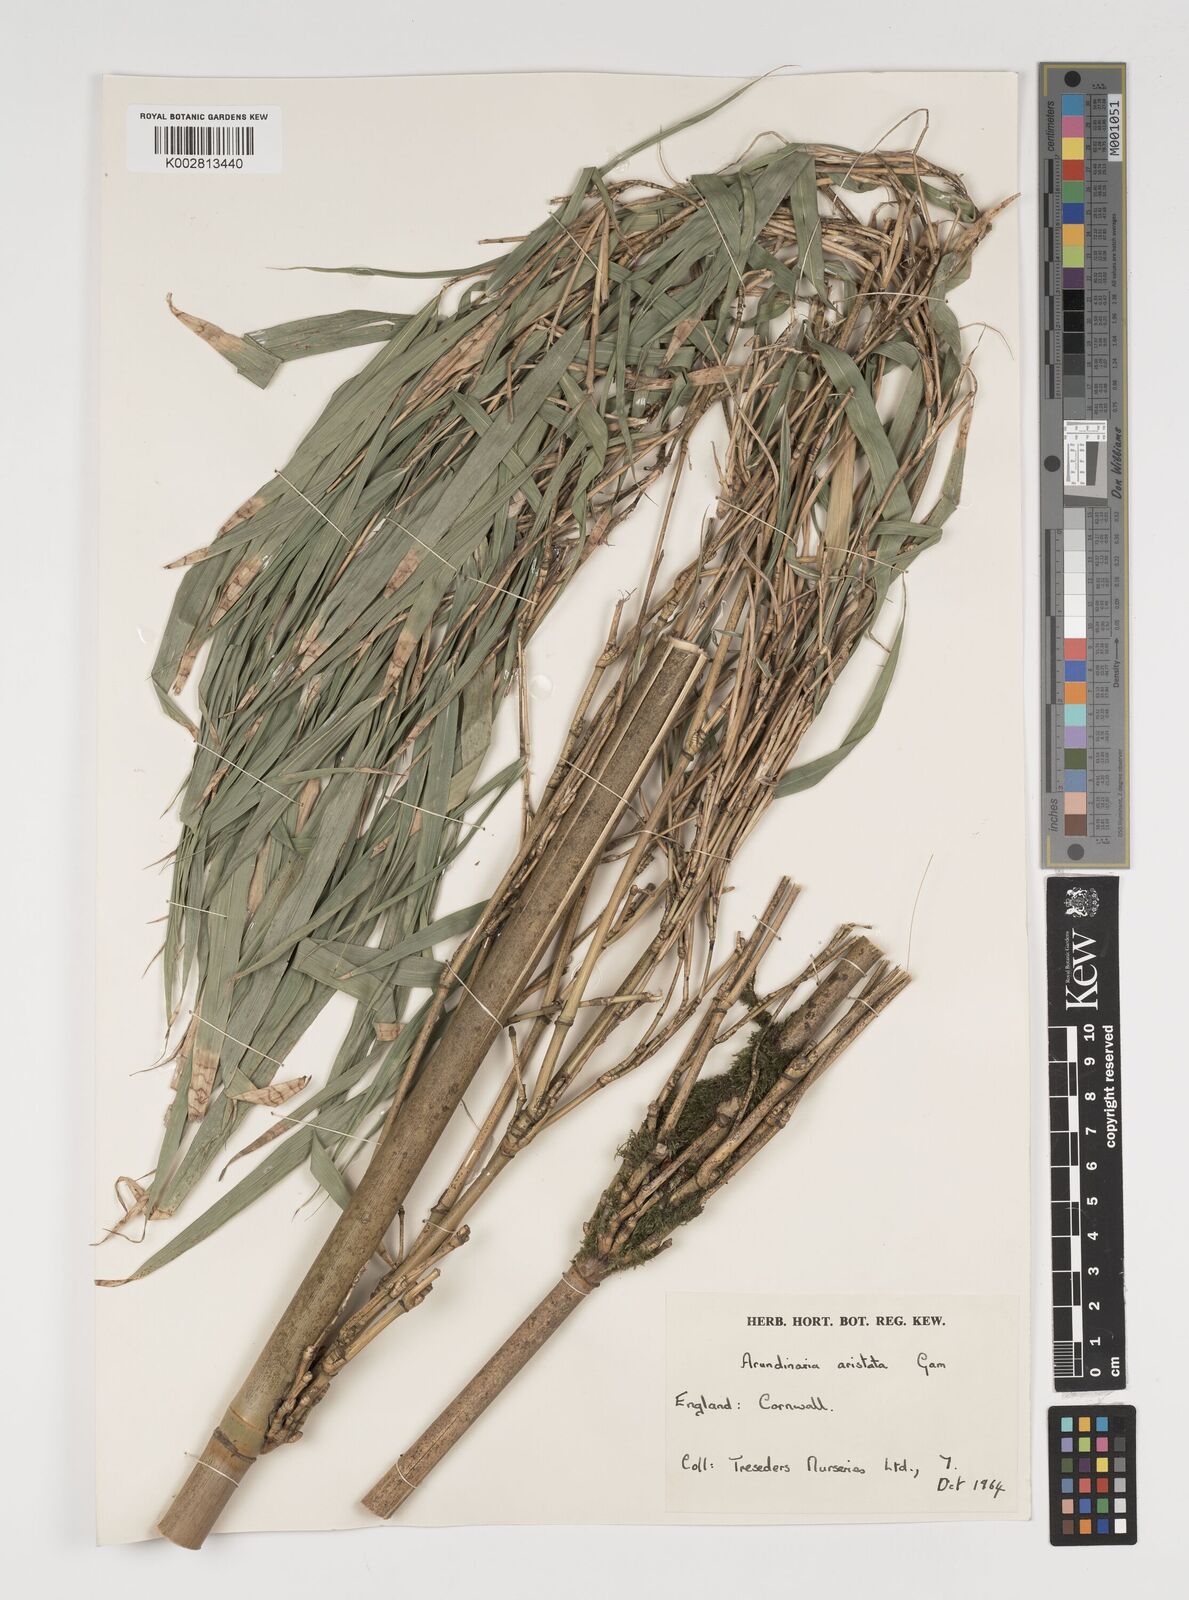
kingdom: Plantae
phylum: Tracheophyta
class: Liliopsida
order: Poales
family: Poaceae
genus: Thamnocalamus
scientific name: Thamnocalamus spathiflorus
